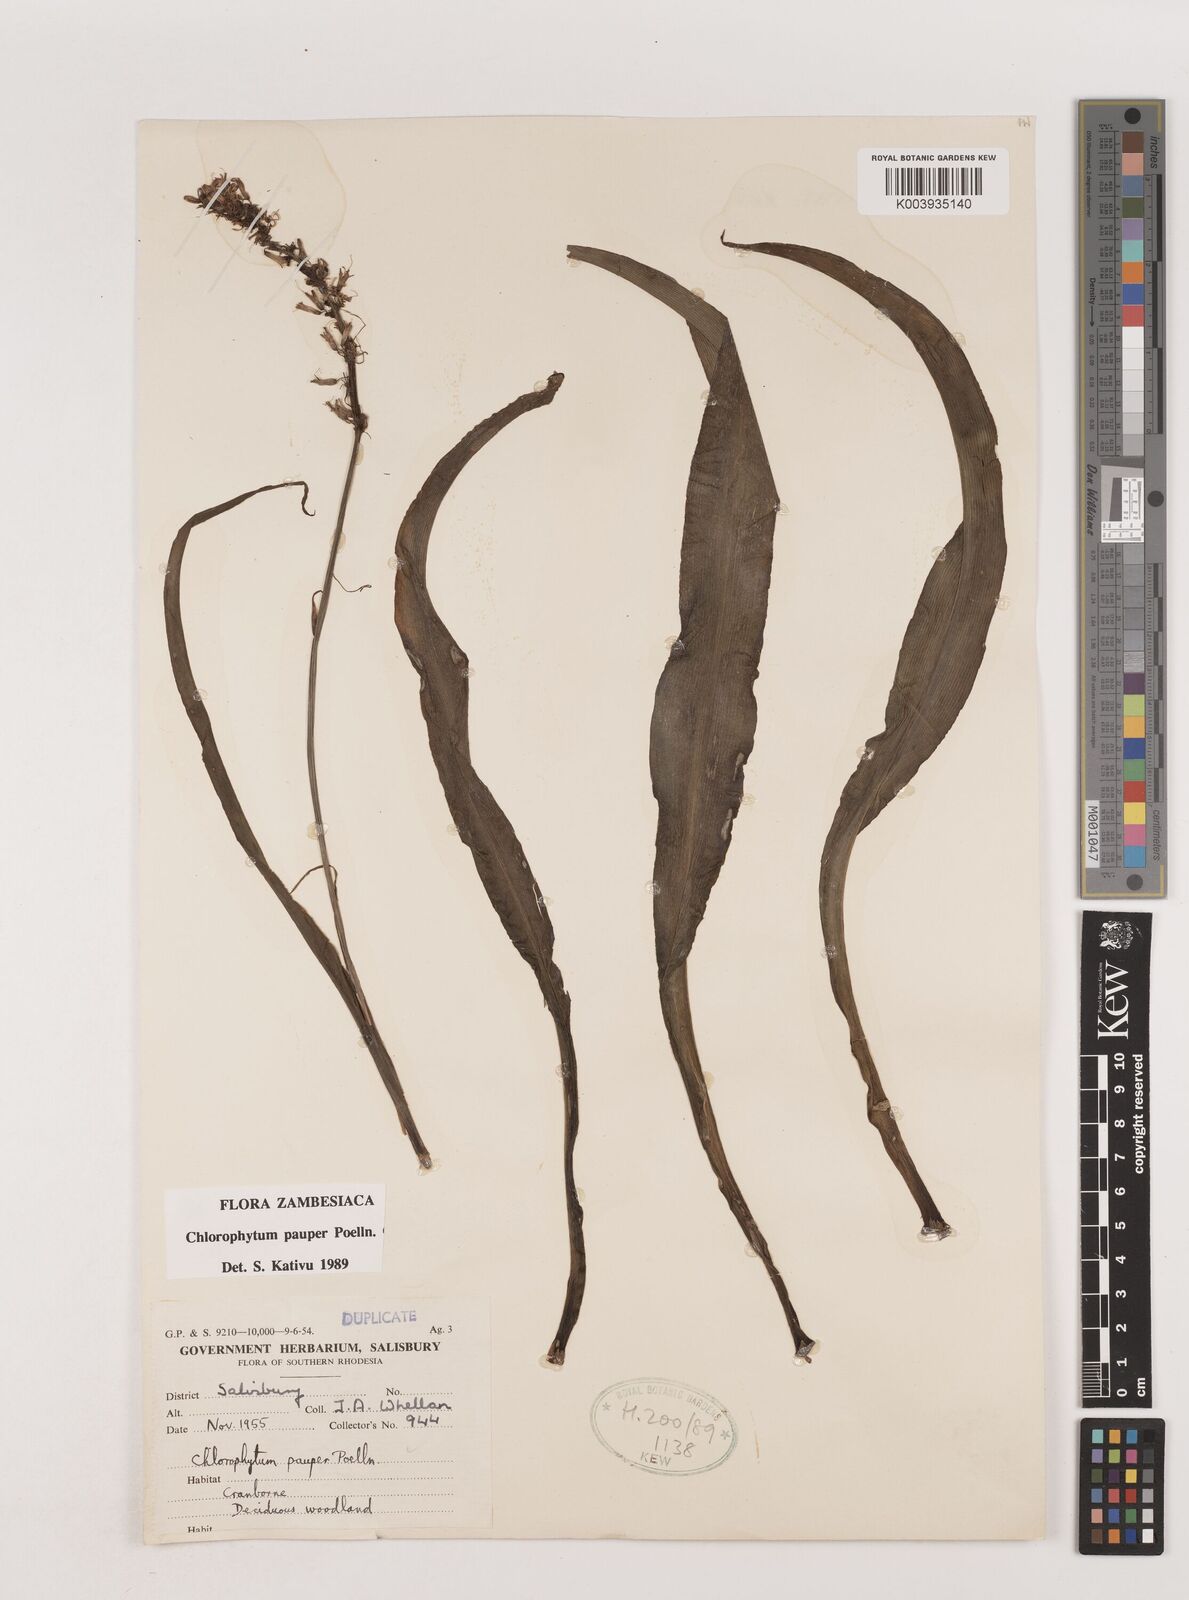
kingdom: Plantae
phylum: Tracheophyta
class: Liliopsida
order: Asparagales
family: Asparagaceae
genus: Chlorophytum
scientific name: Chlorophytum pauper
